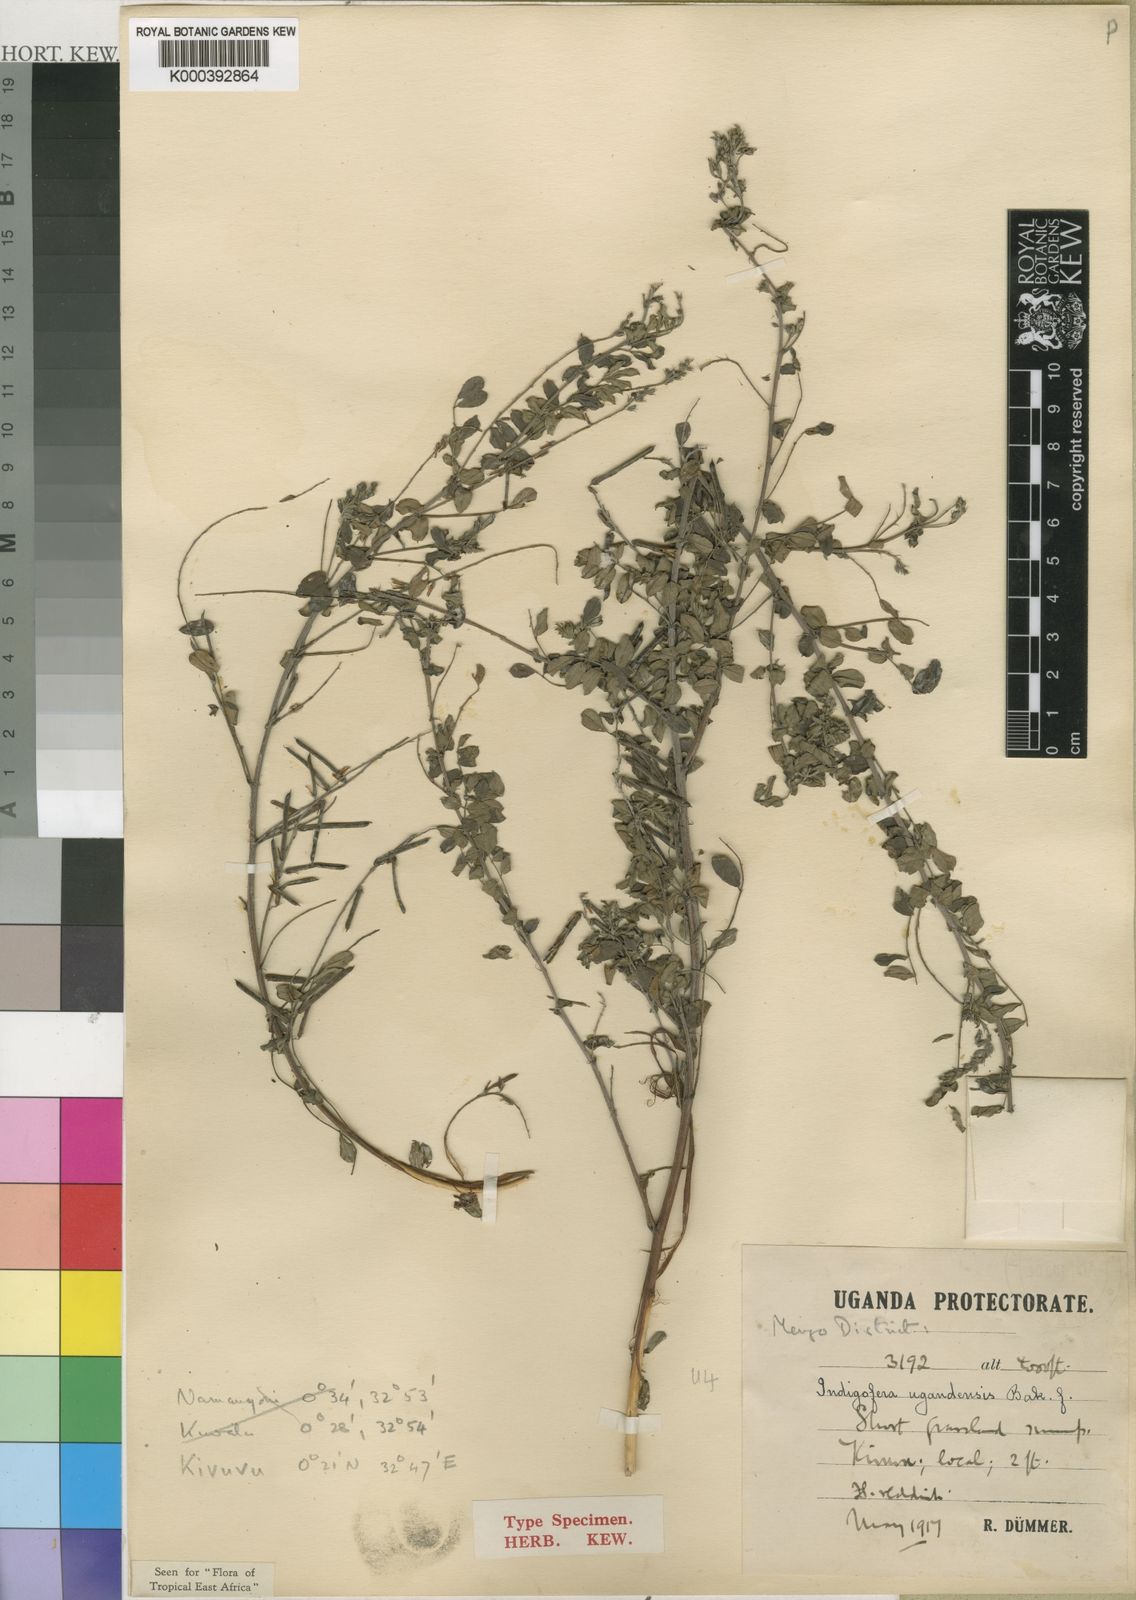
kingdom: Plantae
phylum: Tracheophyta
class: Magnoliopsida
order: Fabales
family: Fabaceae
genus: Indigofera
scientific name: Indigofera ugandensis
